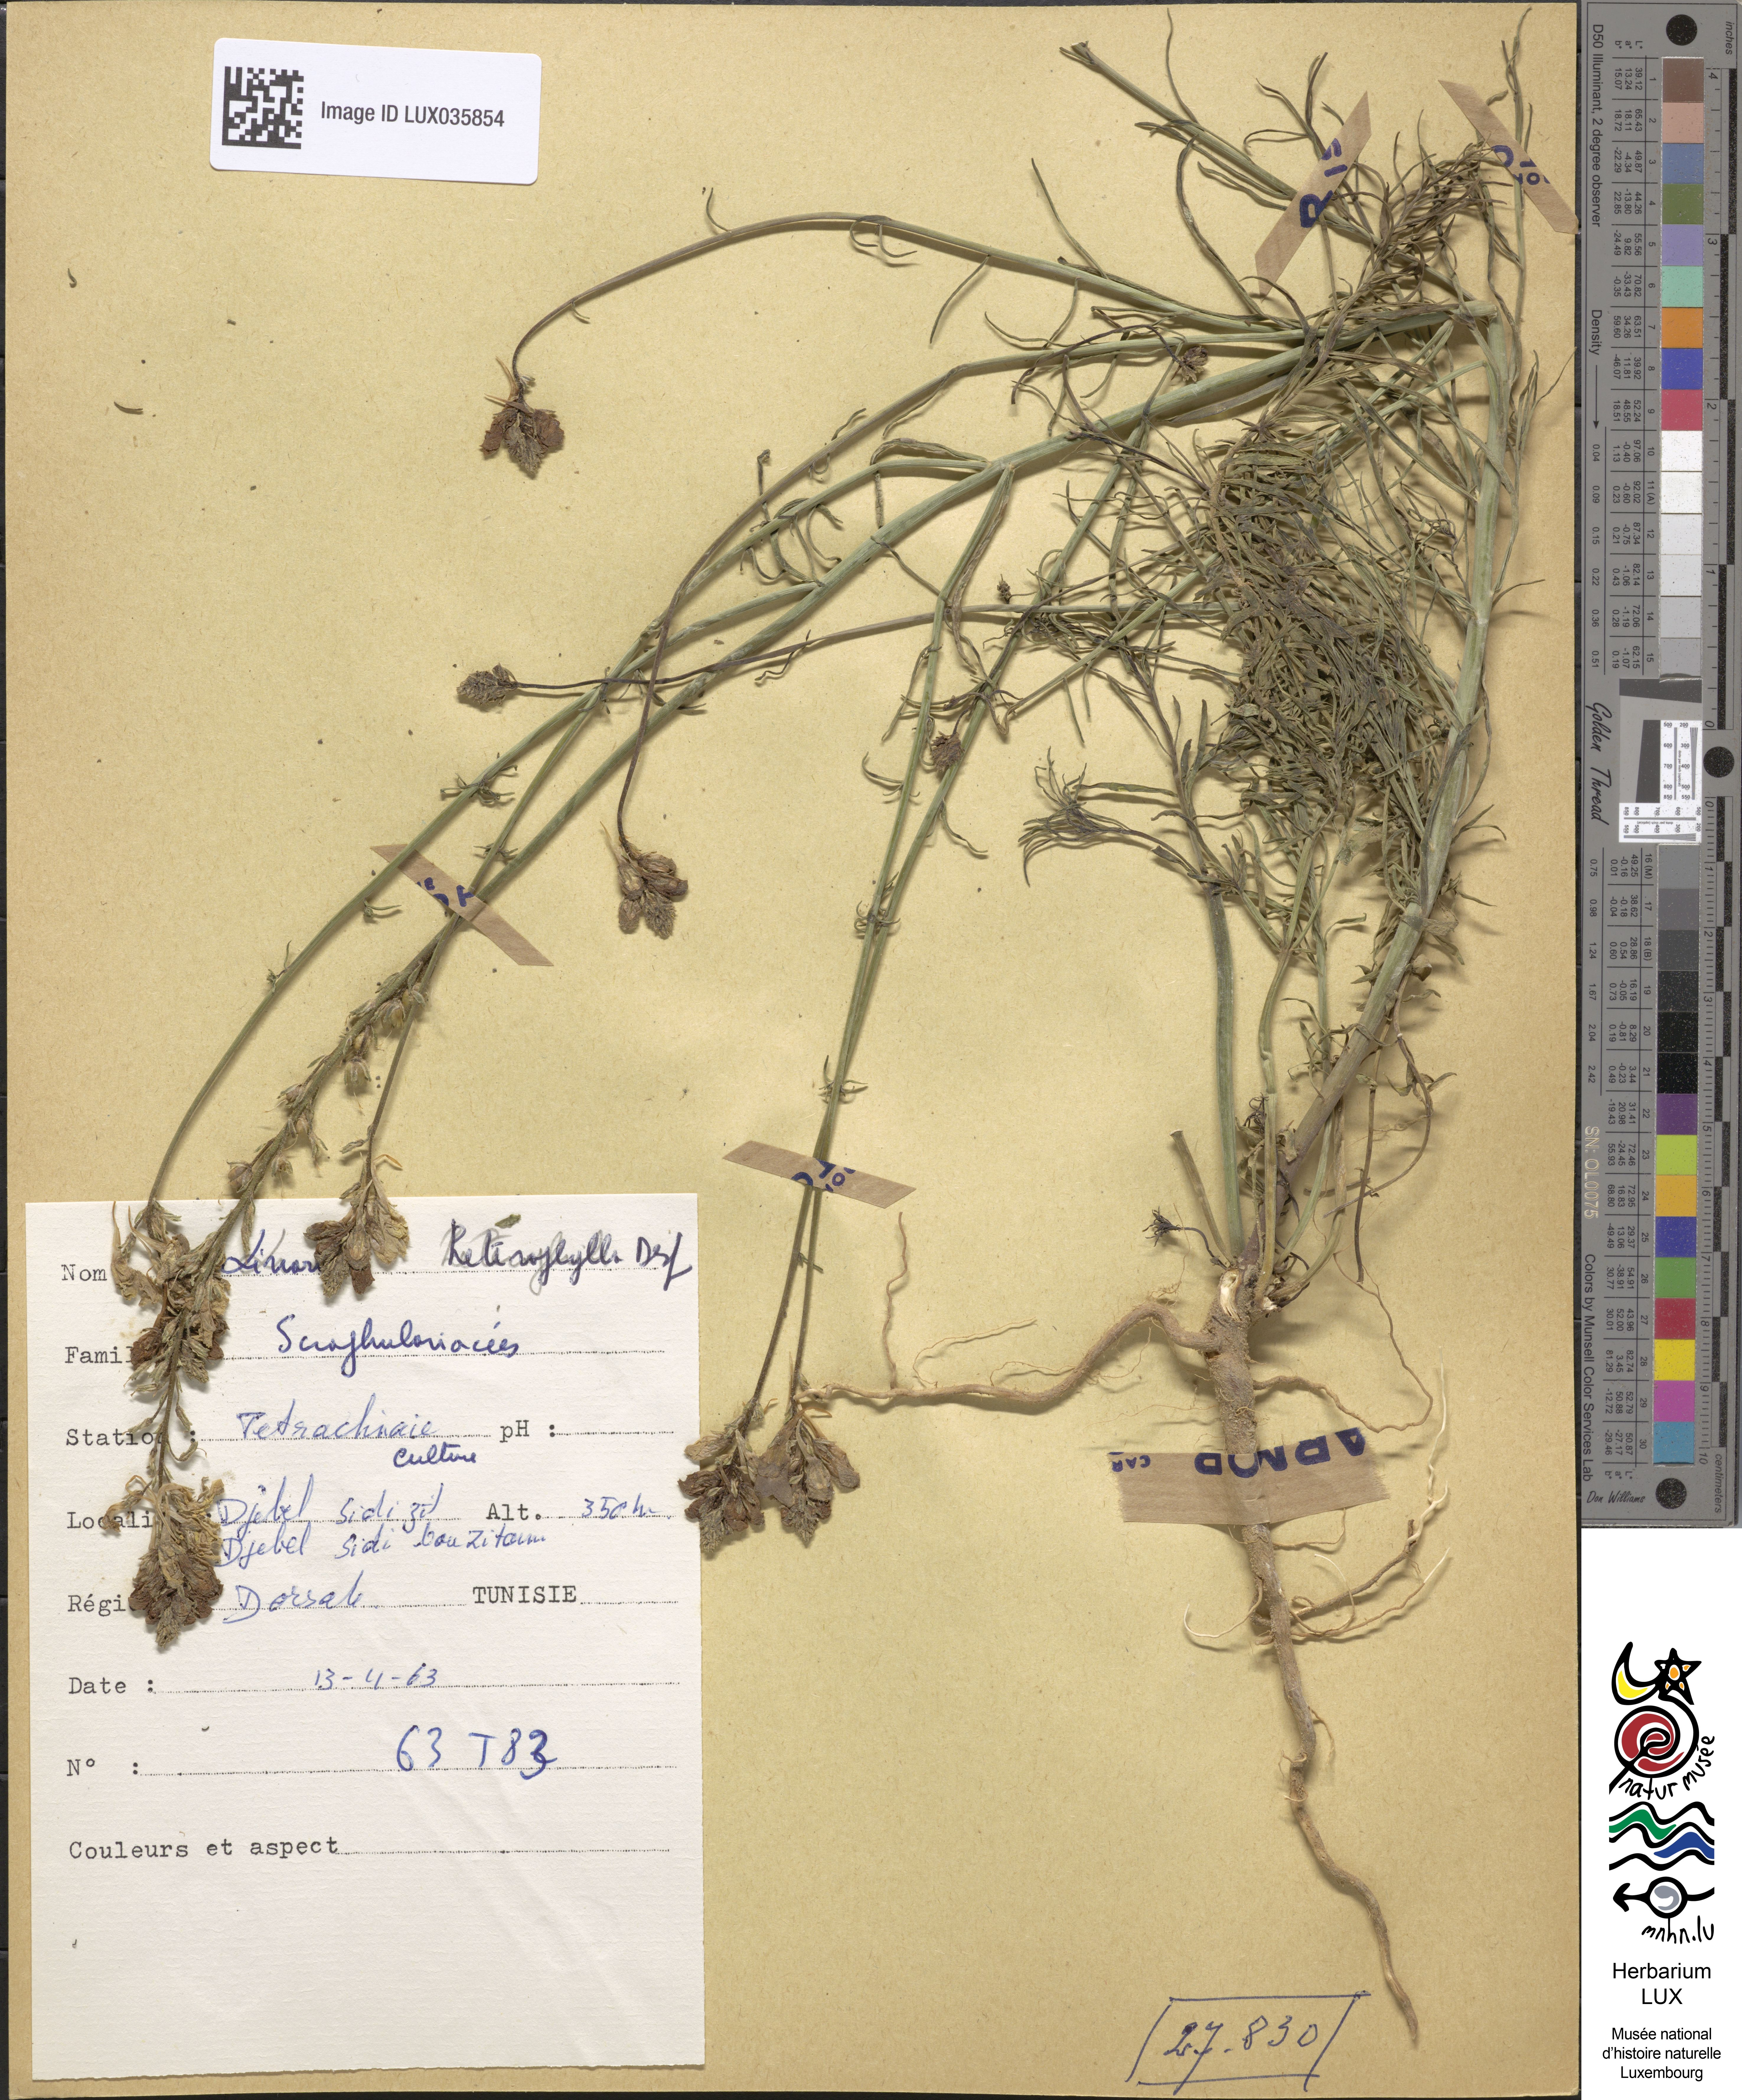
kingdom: Plantae
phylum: Tracheophyta
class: Magnoliopsida
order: Lamiales
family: Plantaginaceae
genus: Kickxia
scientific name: Kickxia aegyptiaca
